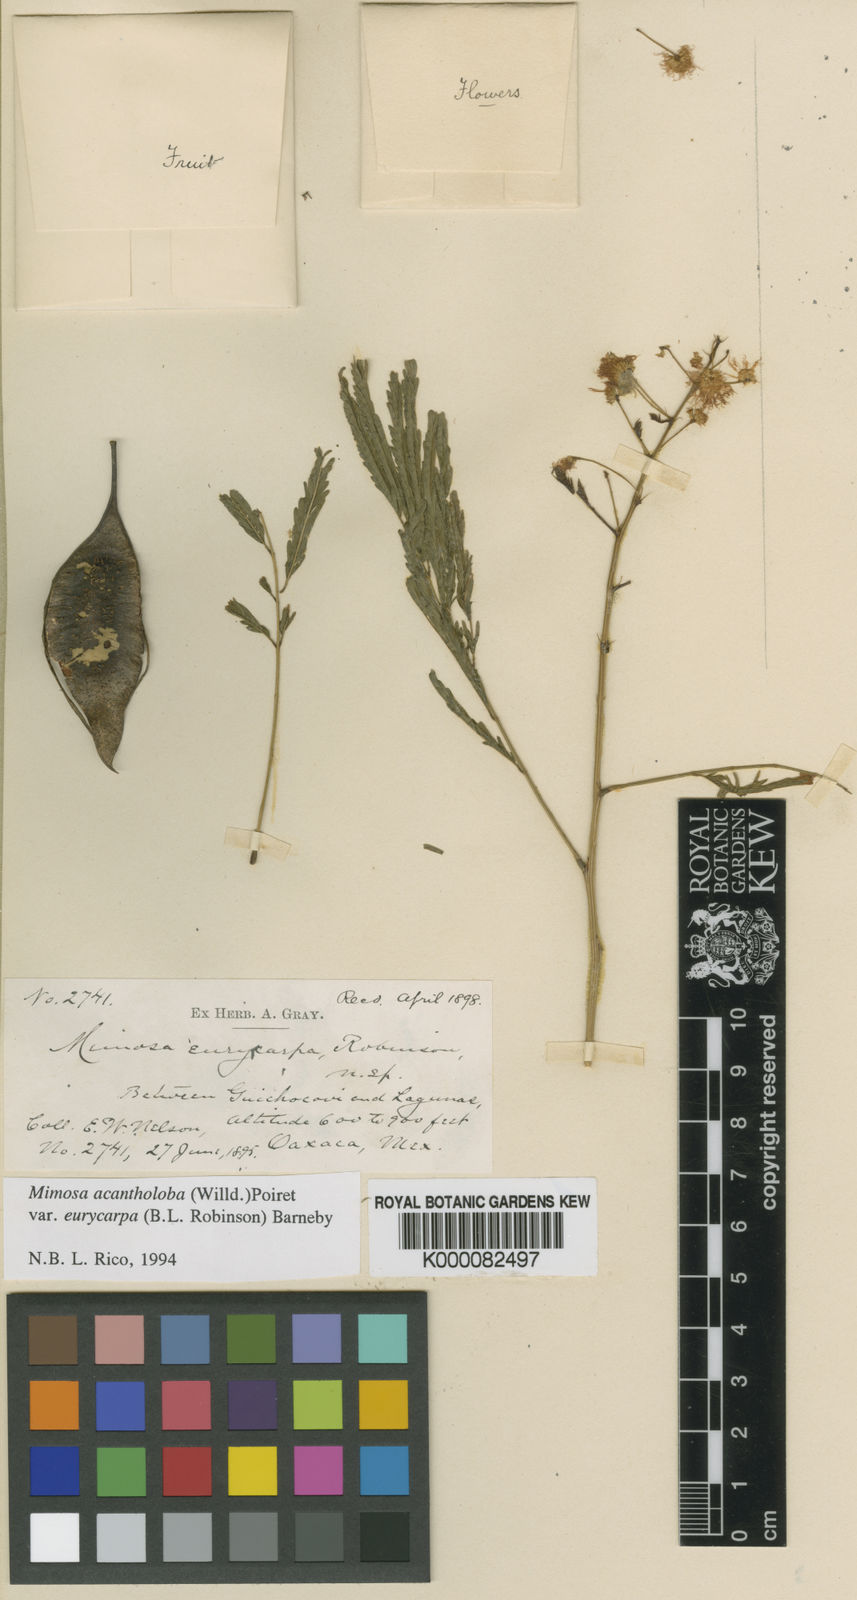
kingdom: Plantae
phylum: Tracheophyta
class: Magnoliopsida
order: Fabales
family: Fabaceae
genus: Mimosa
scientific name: Mimosa acantholoba
